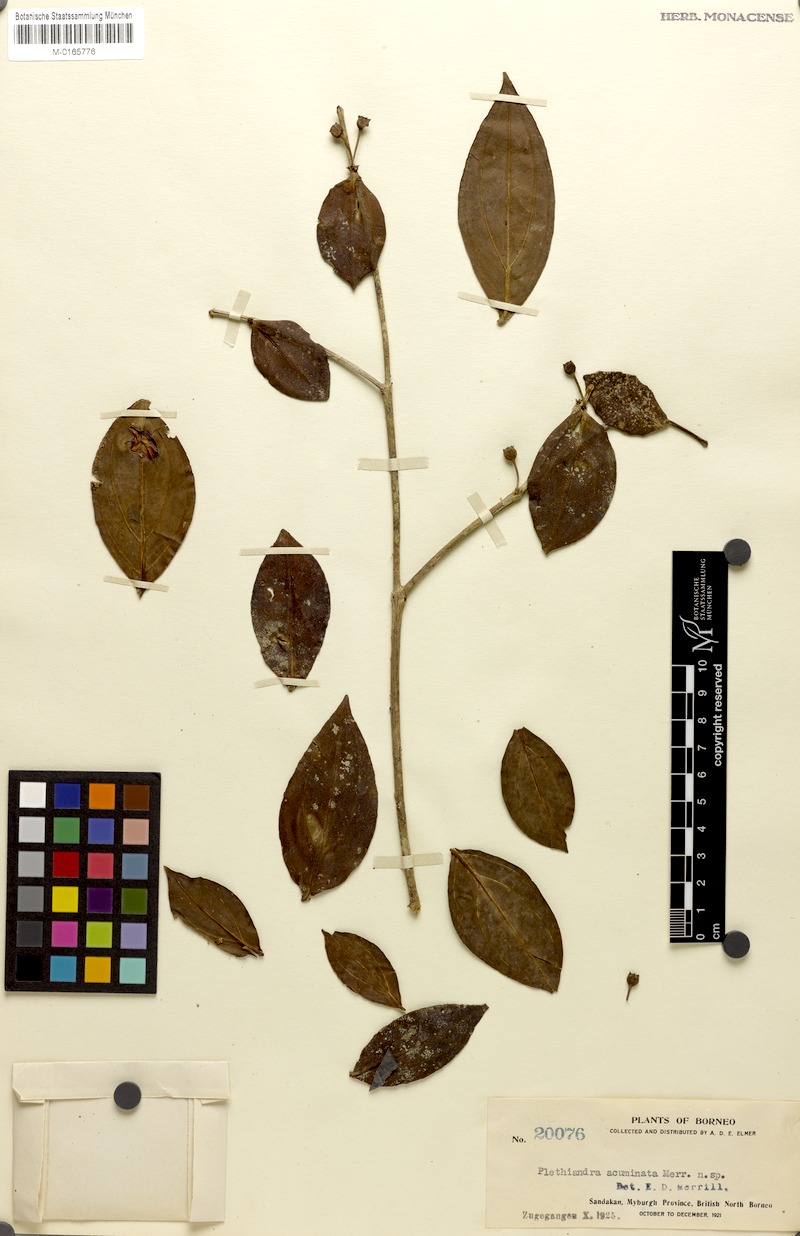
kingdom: Plantae
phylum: Tracheophyta
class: Magnoliopsida
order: Myrtales
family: Melastomataceae
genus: Plethiandra
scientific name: Plethiandra motleyi
